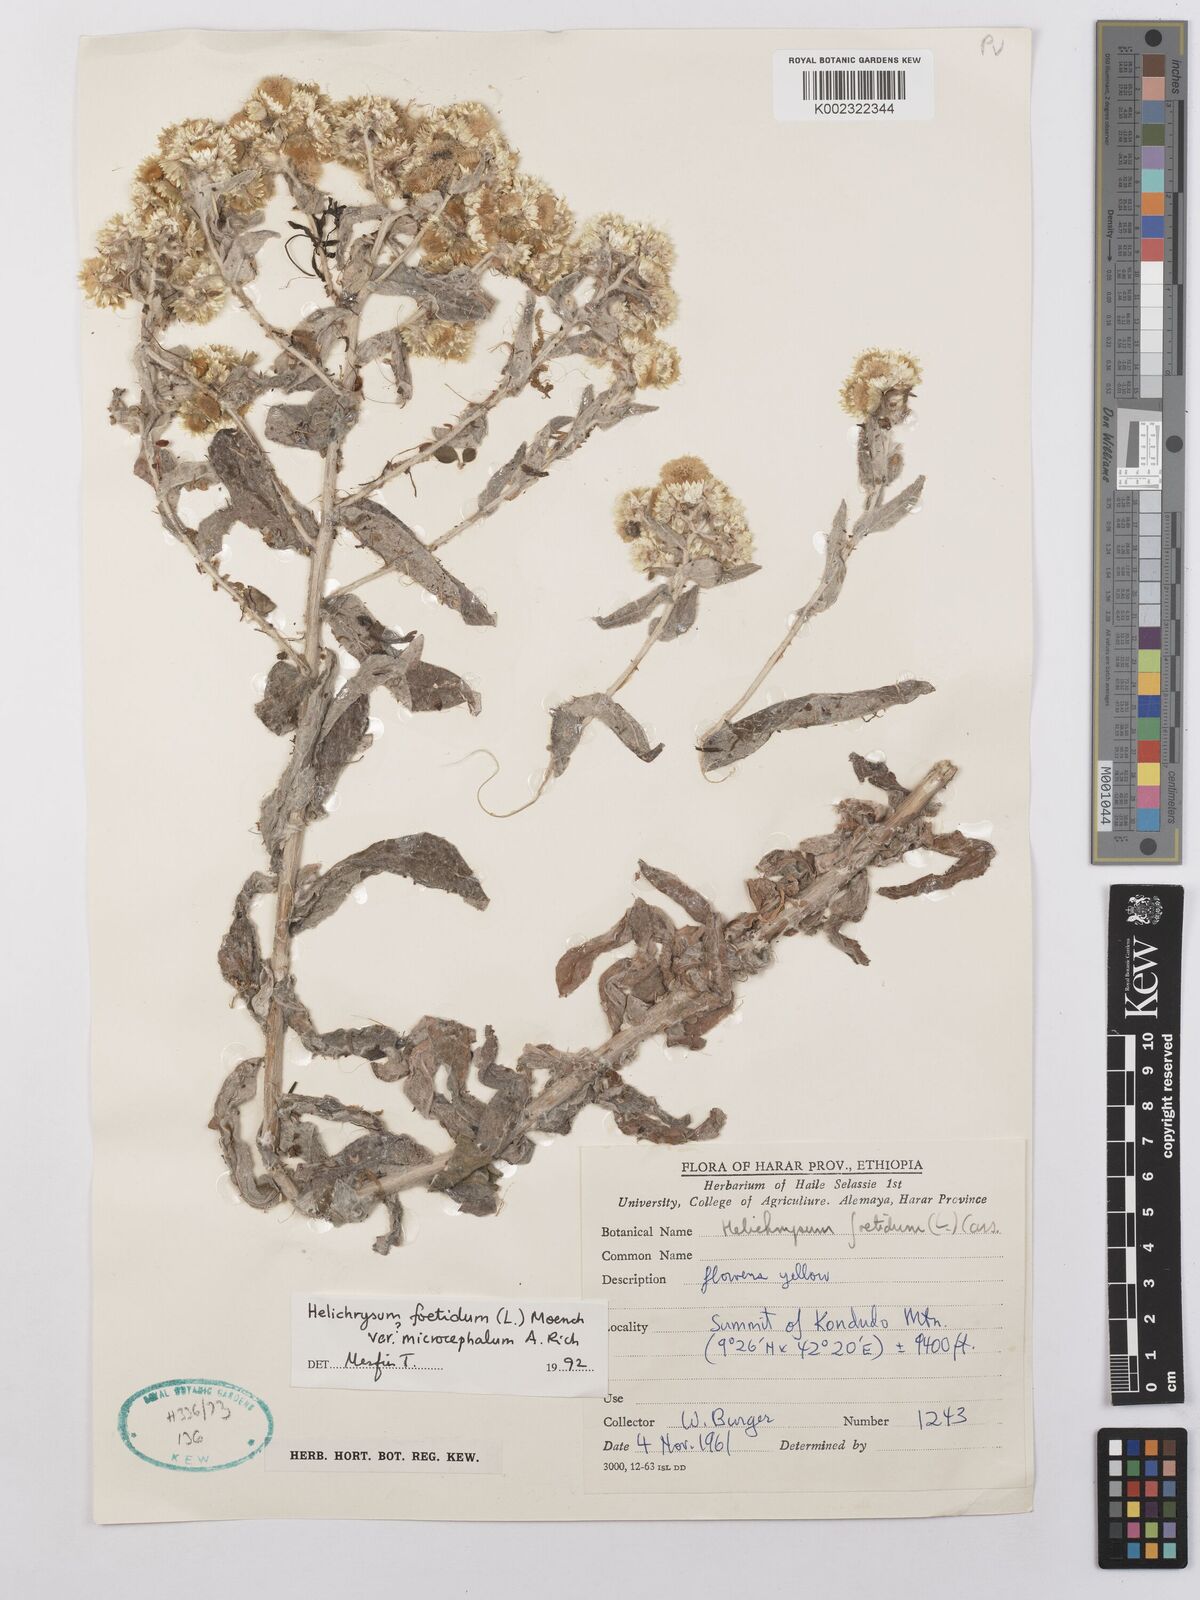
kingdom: Plantae
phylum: Tracheophyta
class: Magnoliopsida
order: Asterales
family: Asteraceae
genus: Helichrysum
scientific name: Helichrysum foetidum
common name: Stinking everlasting
